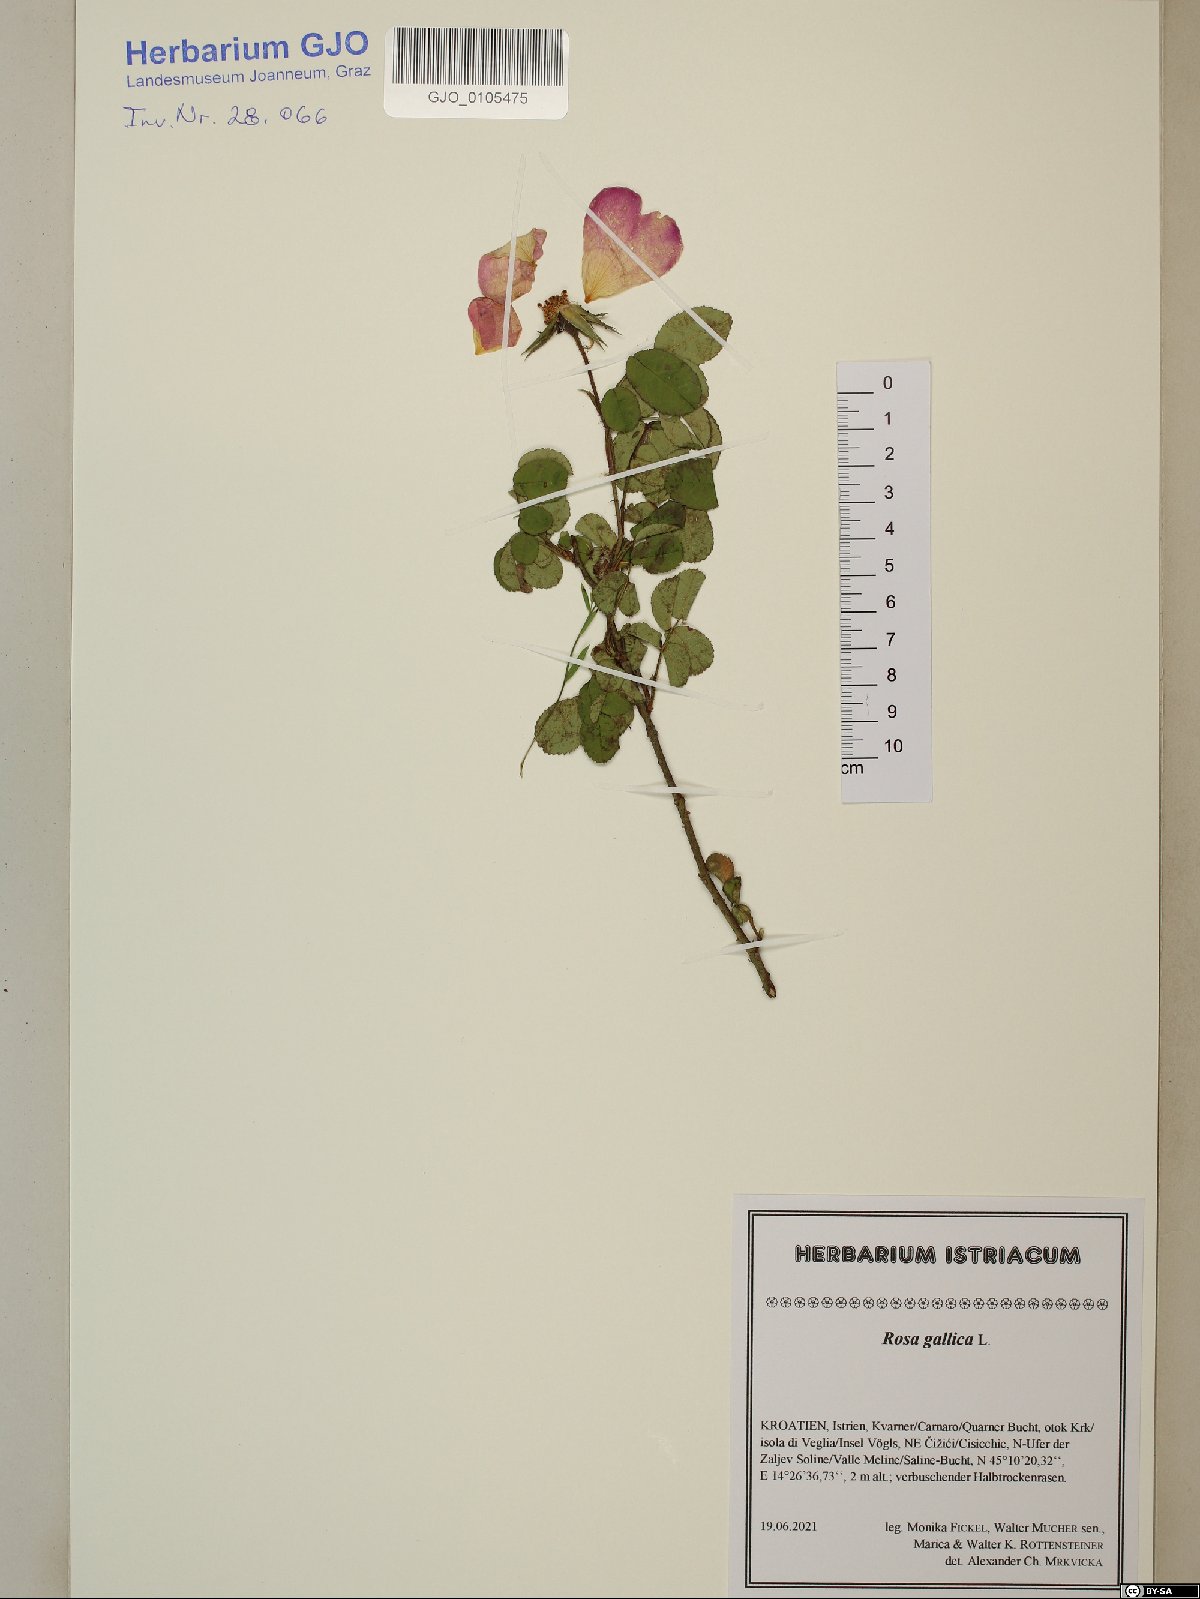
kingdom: Plantae
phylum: Tracheophyta
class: Magnoliopsida
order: Rosales
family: Rosaceae
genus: Rosa
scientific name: Rosa gallica
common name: French rose
